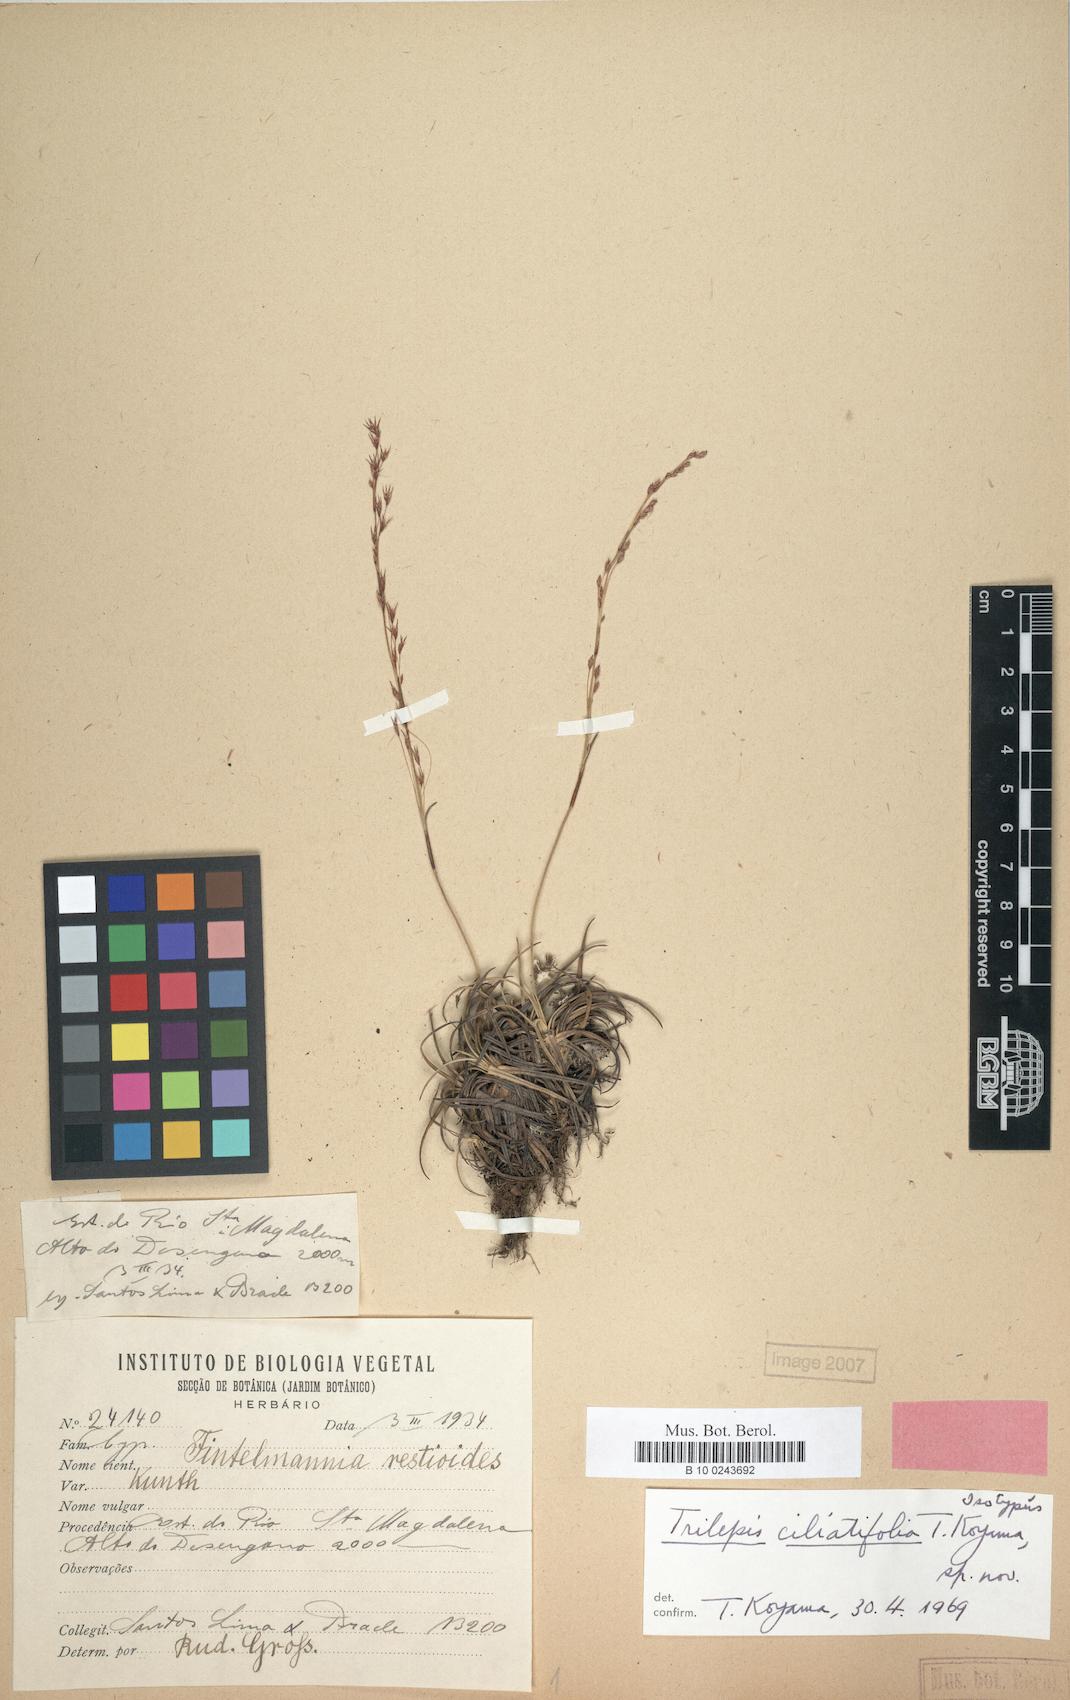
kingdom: Plantae
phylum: Tracheophyta
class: Liliopsida
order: Poales
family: Cyperaceae
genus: Trilepis
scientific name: Trilepis ciliatifolia
